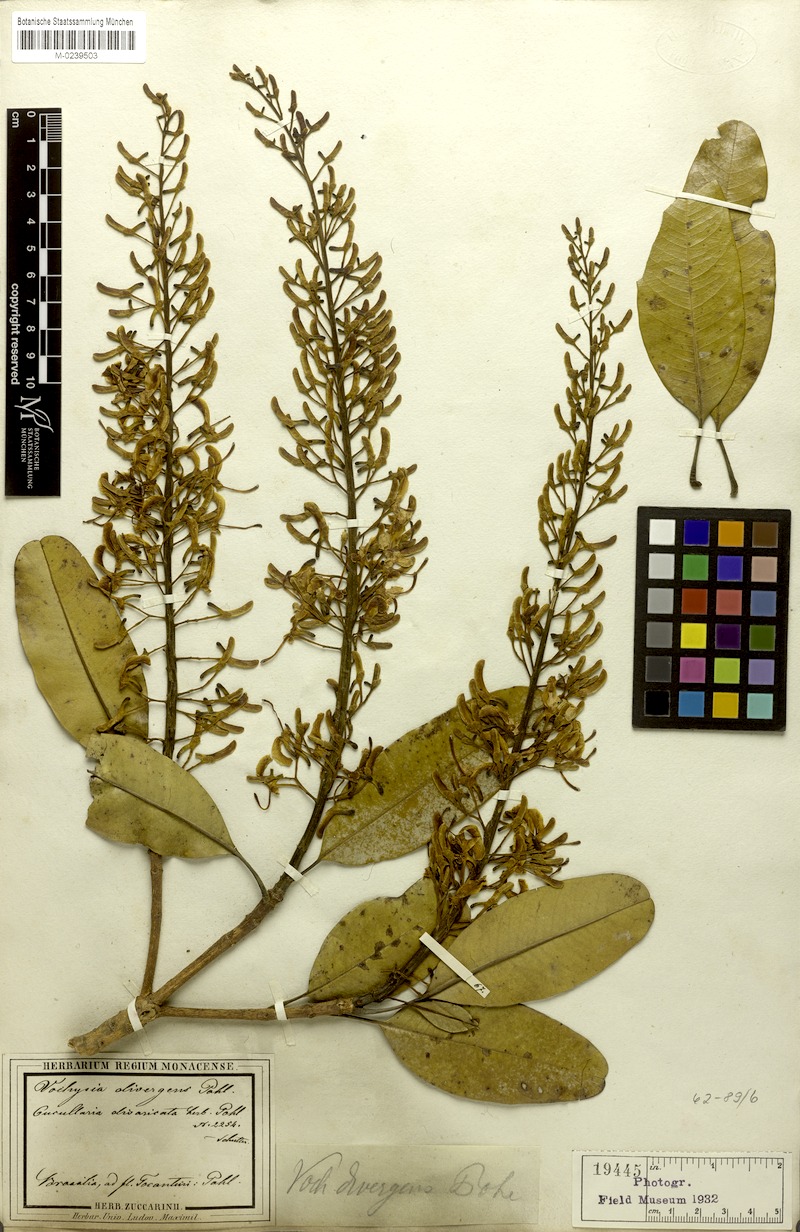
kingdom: Plantae
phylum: Tracheophyta
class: Magnoliopsida
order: Myrtales
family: Vochysiaceae
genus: Vochysia
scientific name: Vochysia divergens
